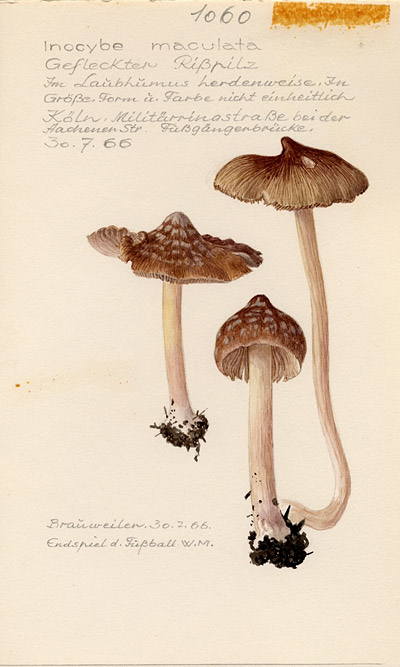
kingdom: Fungi
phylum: Basidiomycota
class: Agaricomycetes
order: Agaricales
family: Inocybaceae
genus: Inosperma
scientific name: Inosperma maculatum
